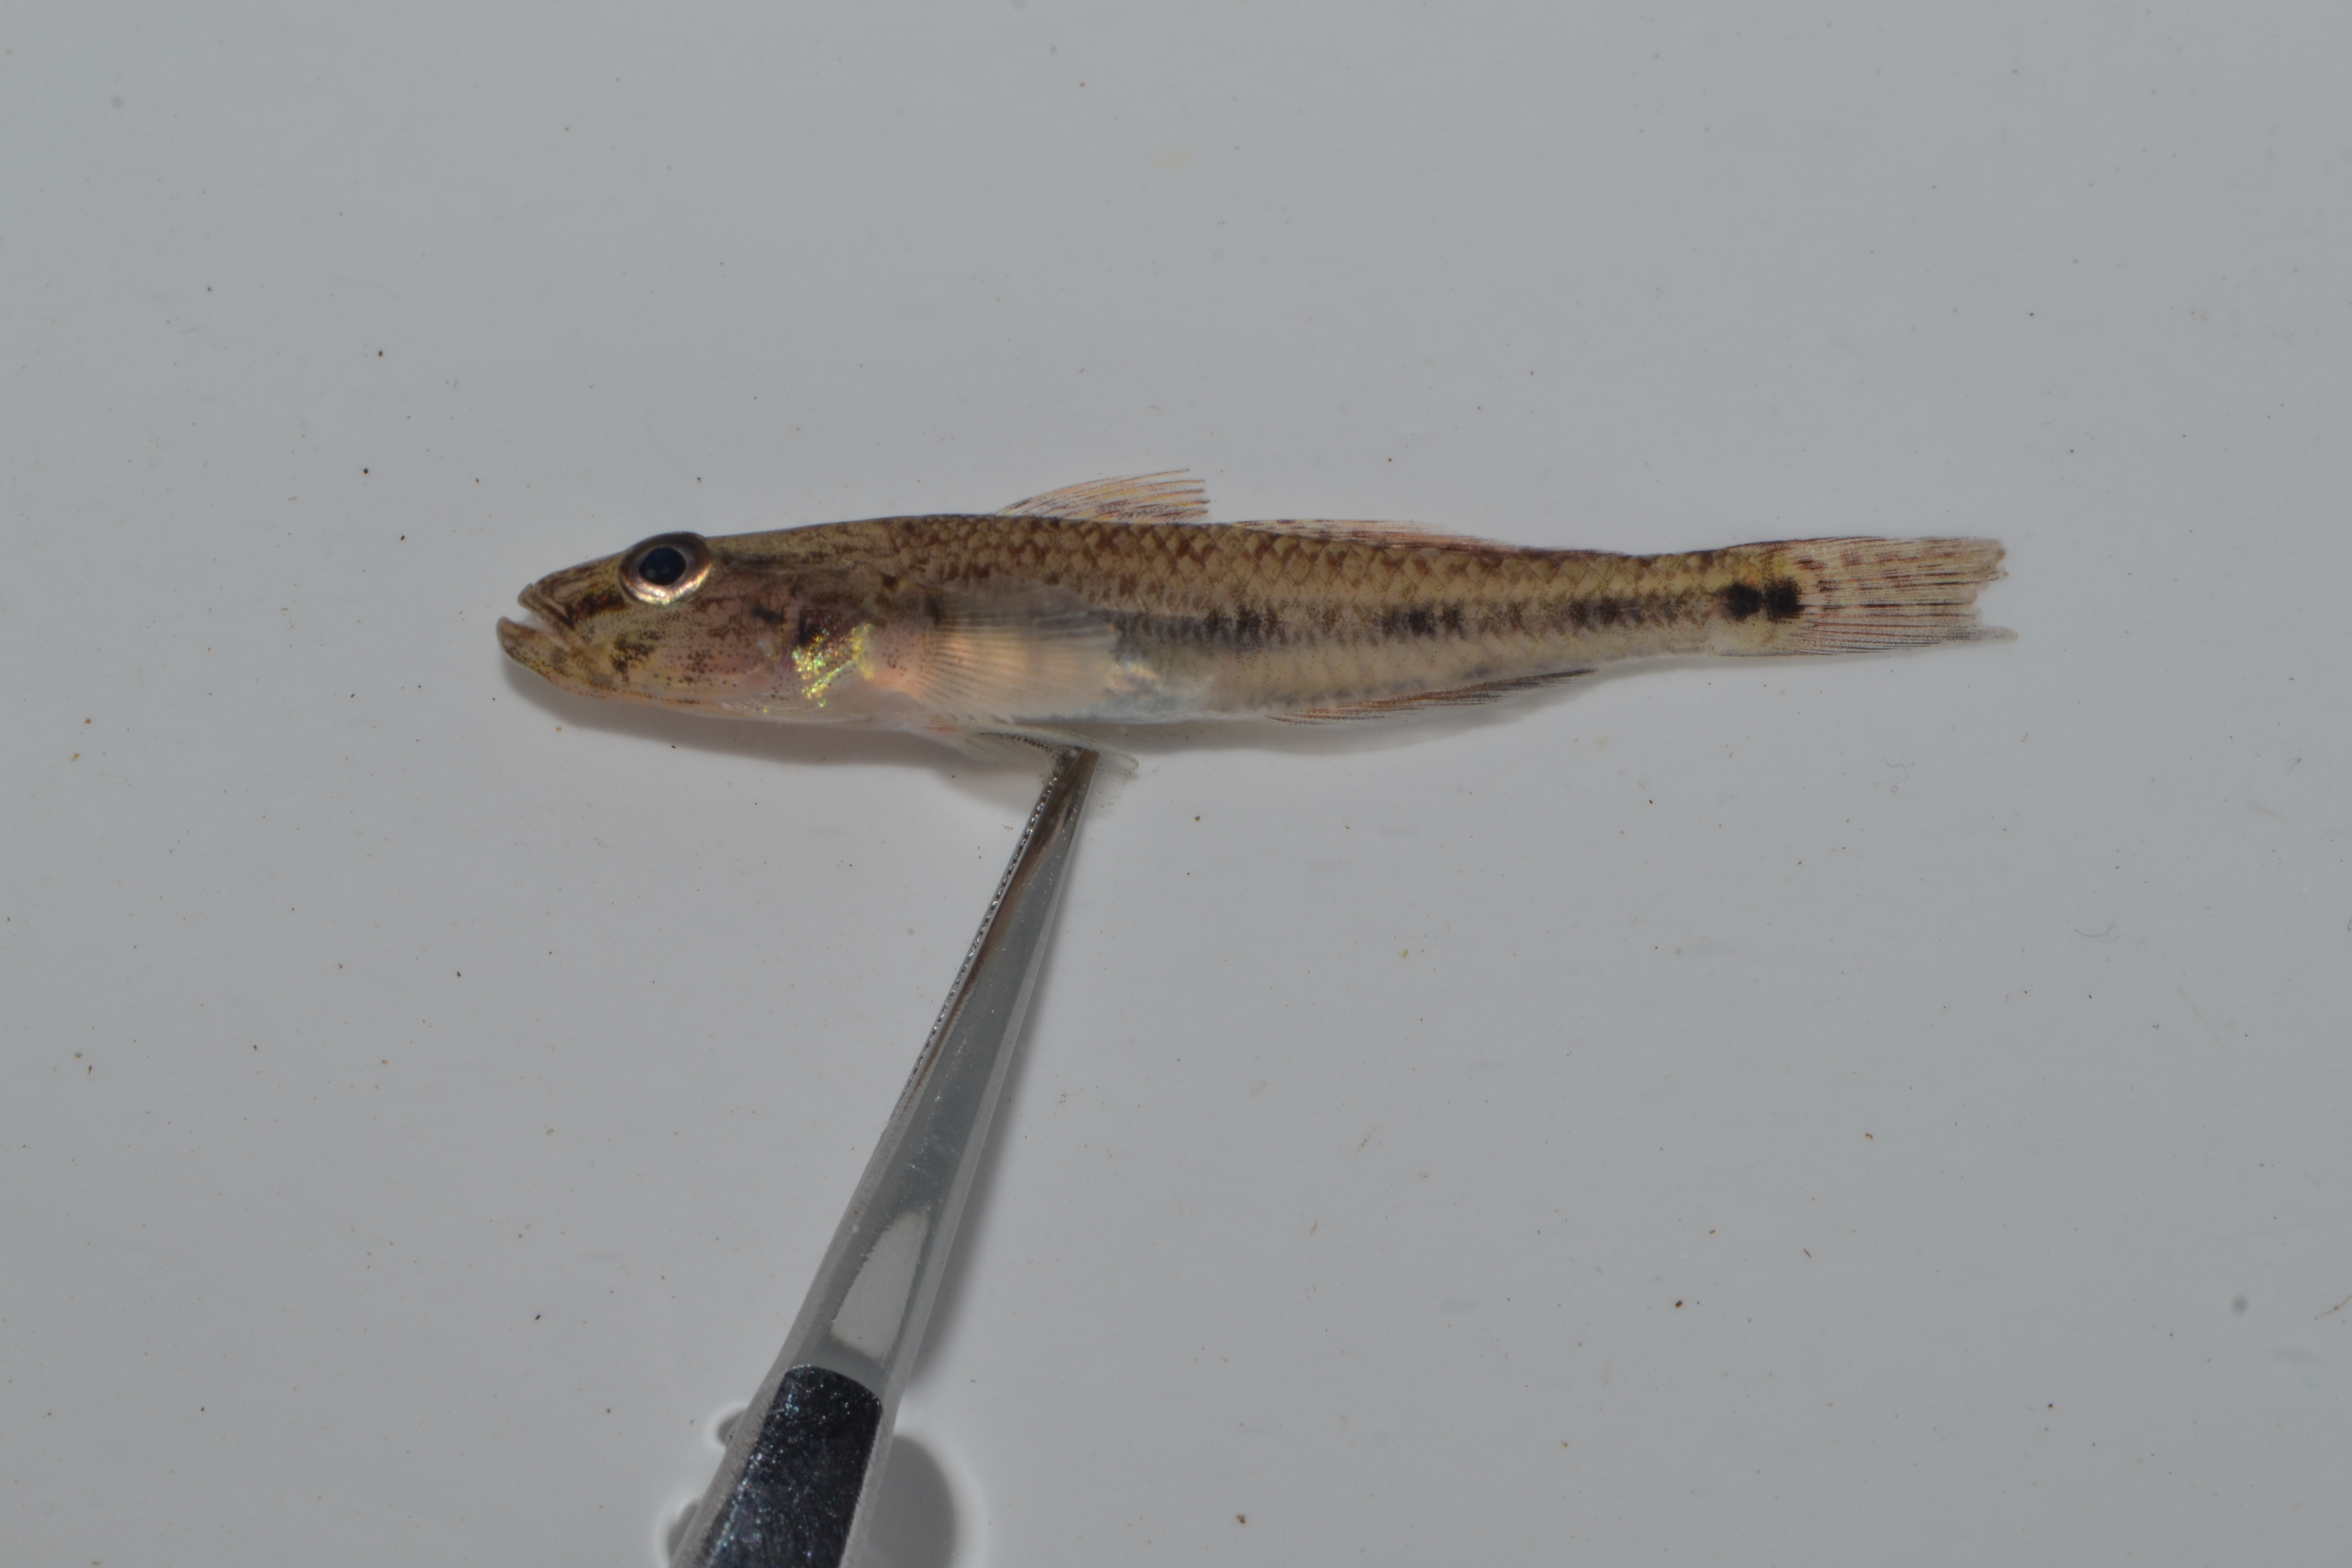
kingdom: Animalia
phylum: Chordata
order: Perciformes
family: Gobiidae
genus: Glossogobius
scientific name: Glossogobius callidus
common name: River goby
